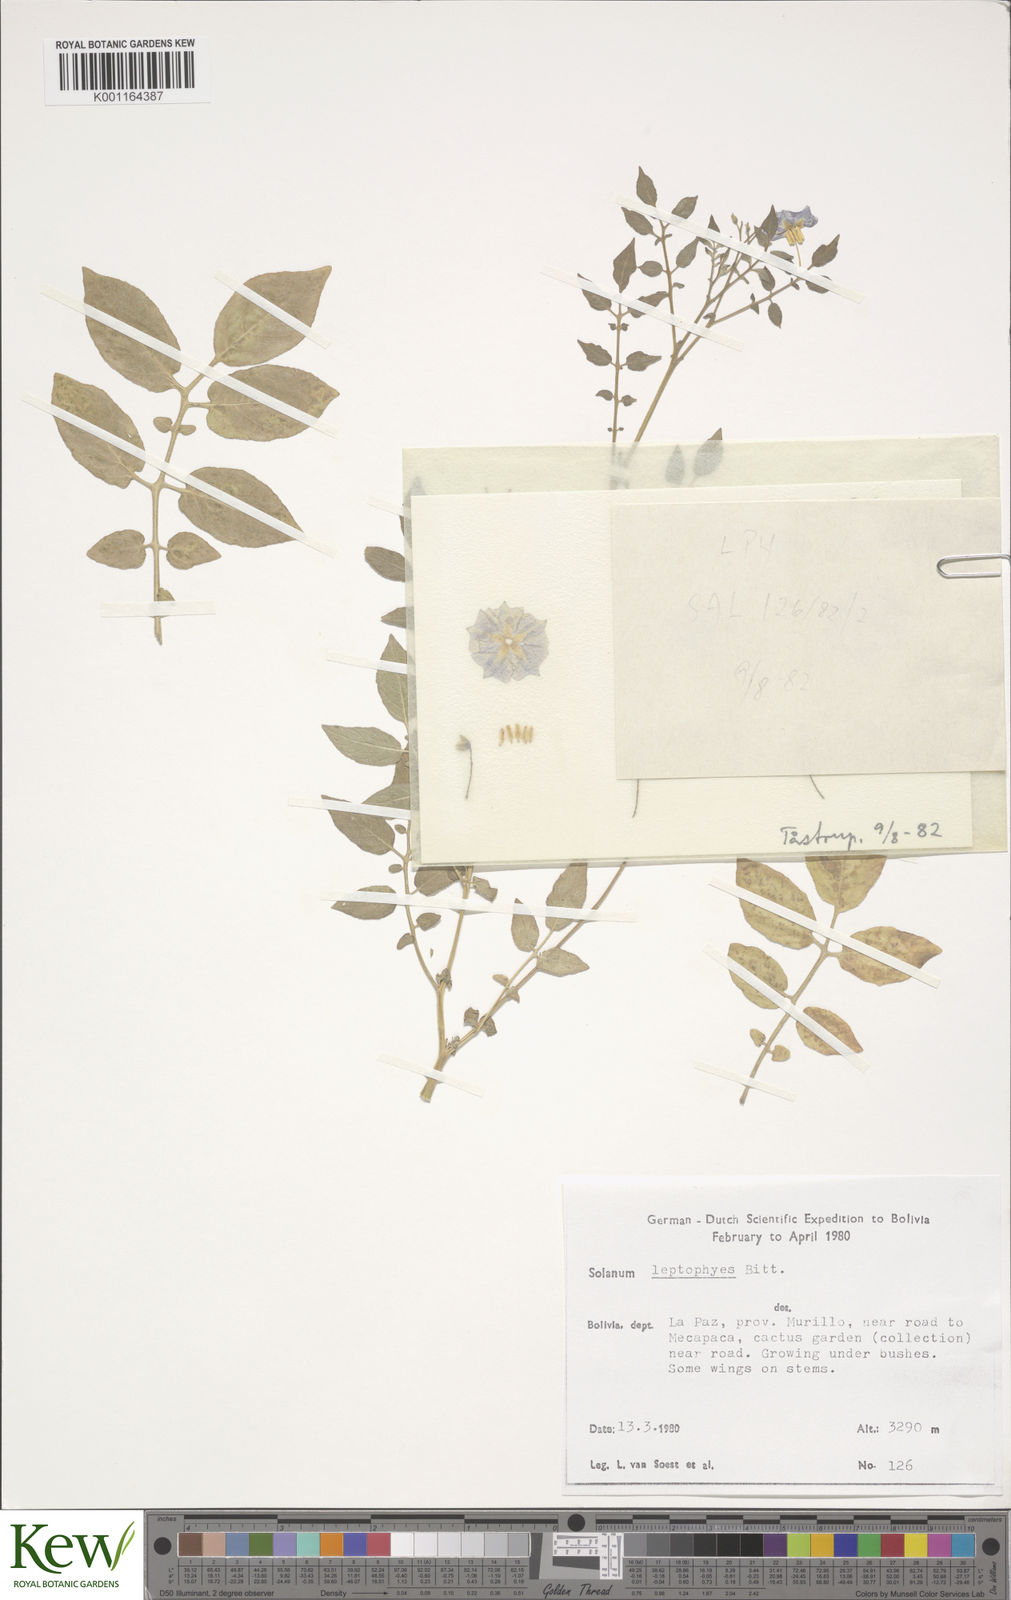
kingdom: Plantae
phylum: Tracheophyta
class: Magnoliopsida
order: Solanales
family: Solanaceae
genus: Solanum
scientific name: Solanum brevicaule
